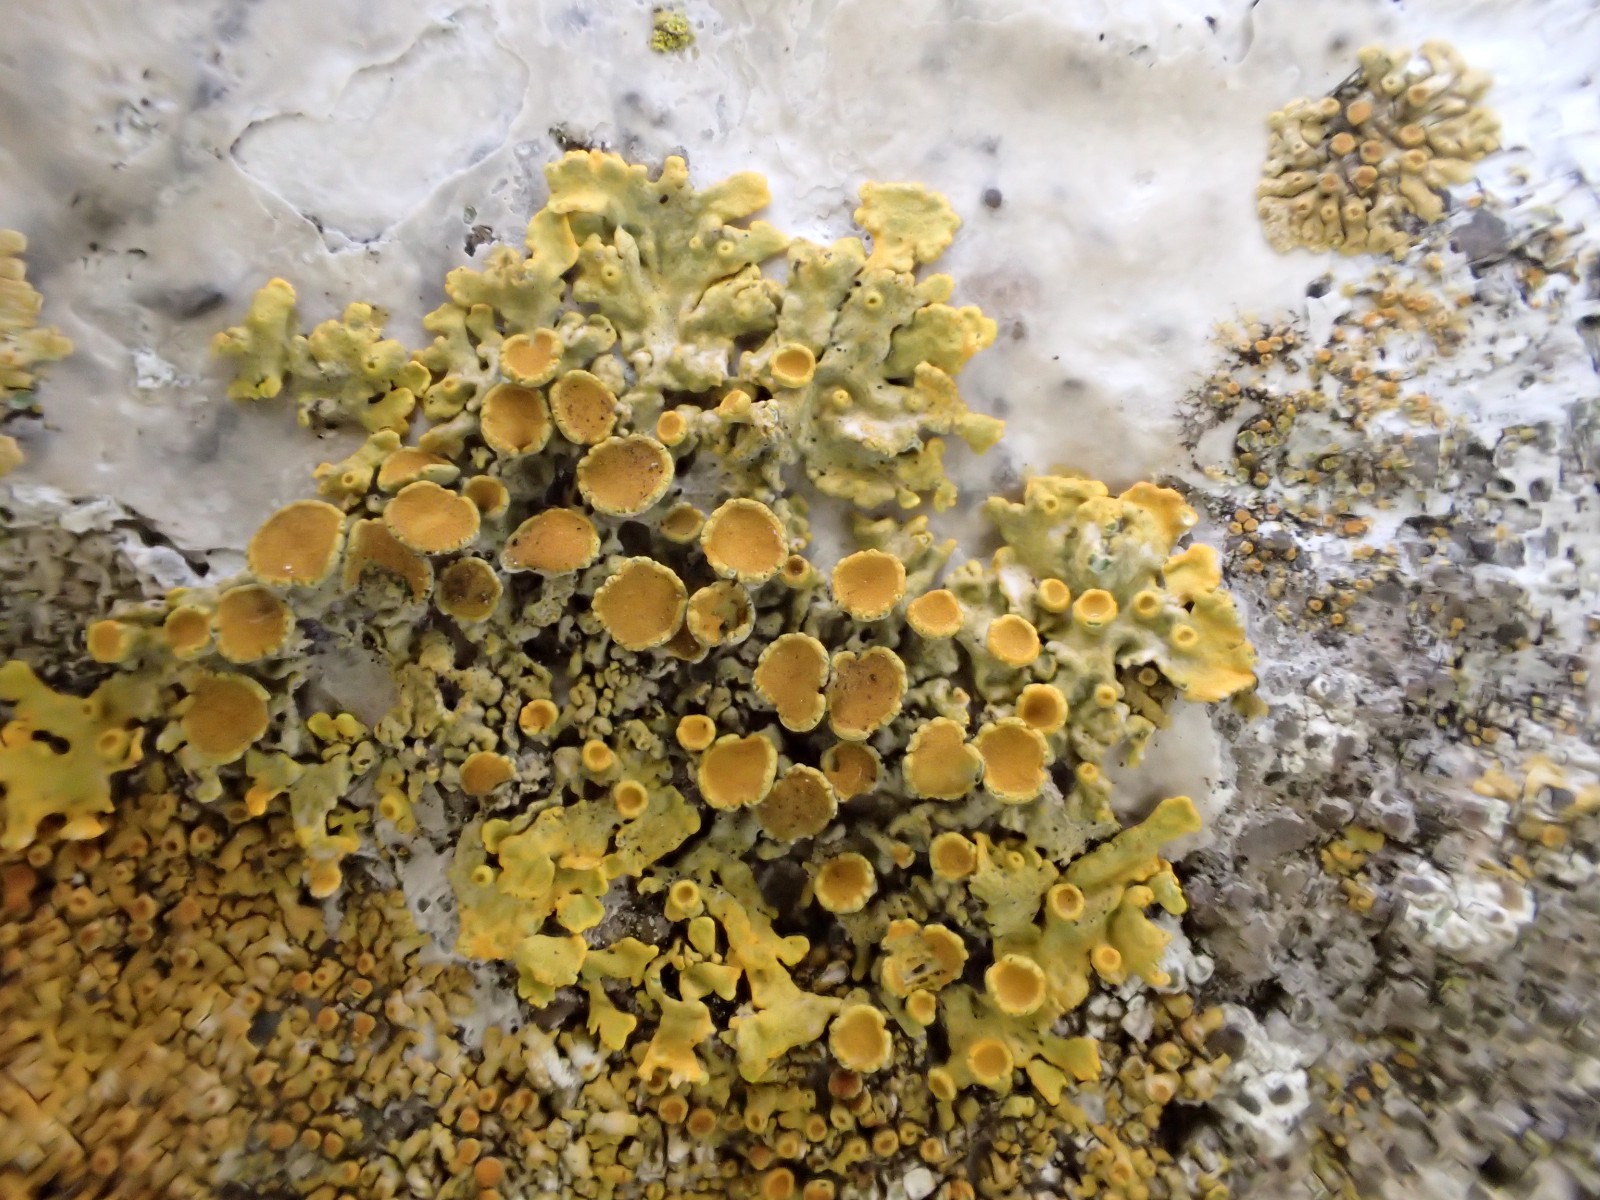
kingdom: Fungi
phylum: Ascomycota
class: Lecanoromycetes
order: Teloschistales
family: Teloschistaceae
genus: Xanthoria
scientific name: Xanthoria parietina
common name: almindelig væggelav
